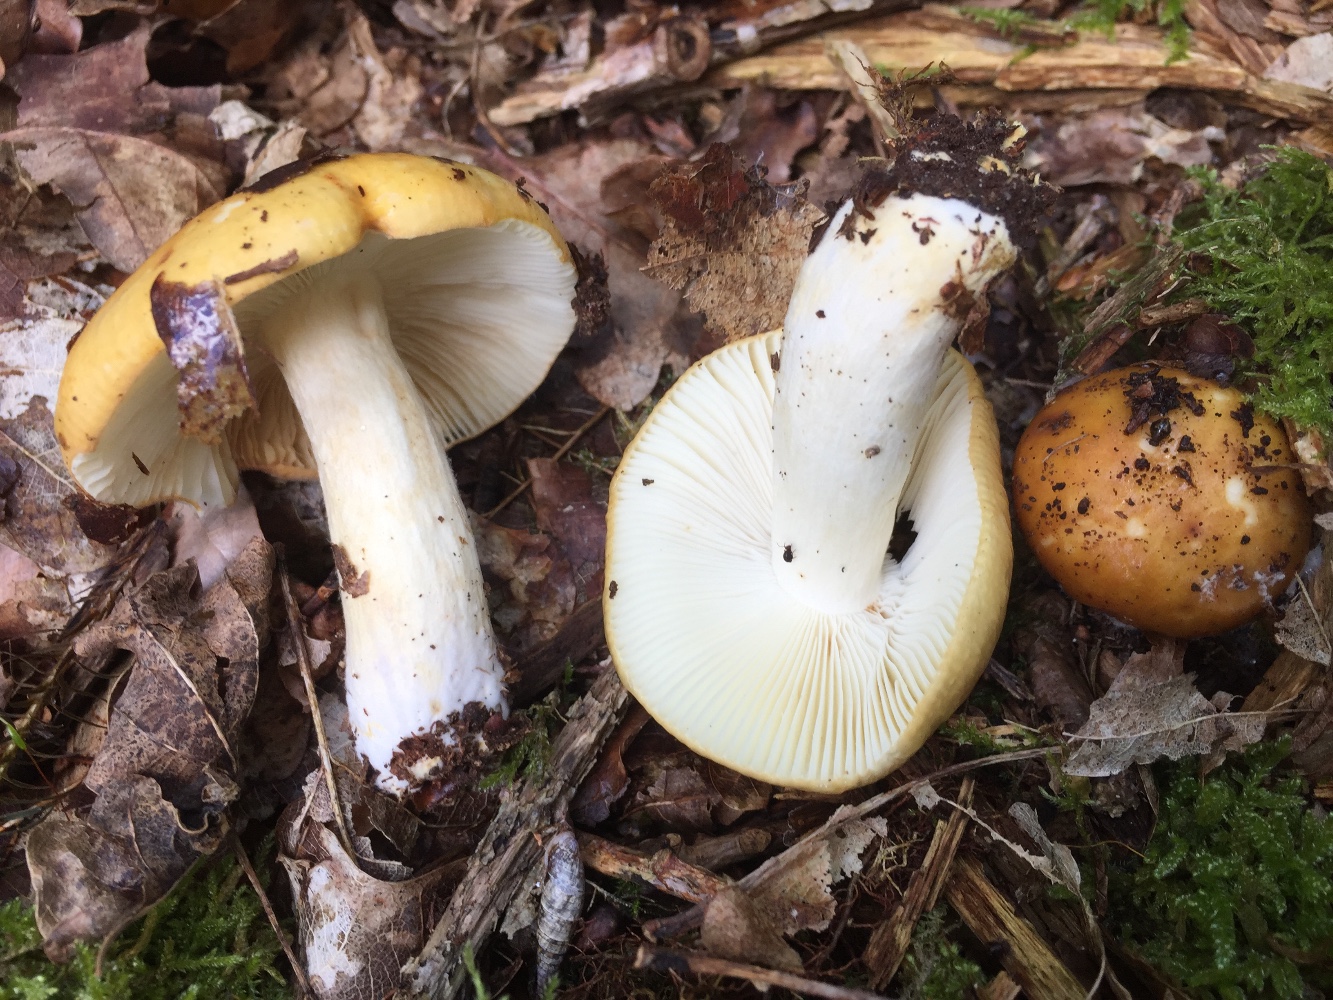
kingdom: Fungi
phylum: Basidiomycota
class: Agaricomycetes
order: Russulales
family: Russulaceae
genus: Russula
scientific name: Russula ochroleuca
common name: okkergul skørhat
